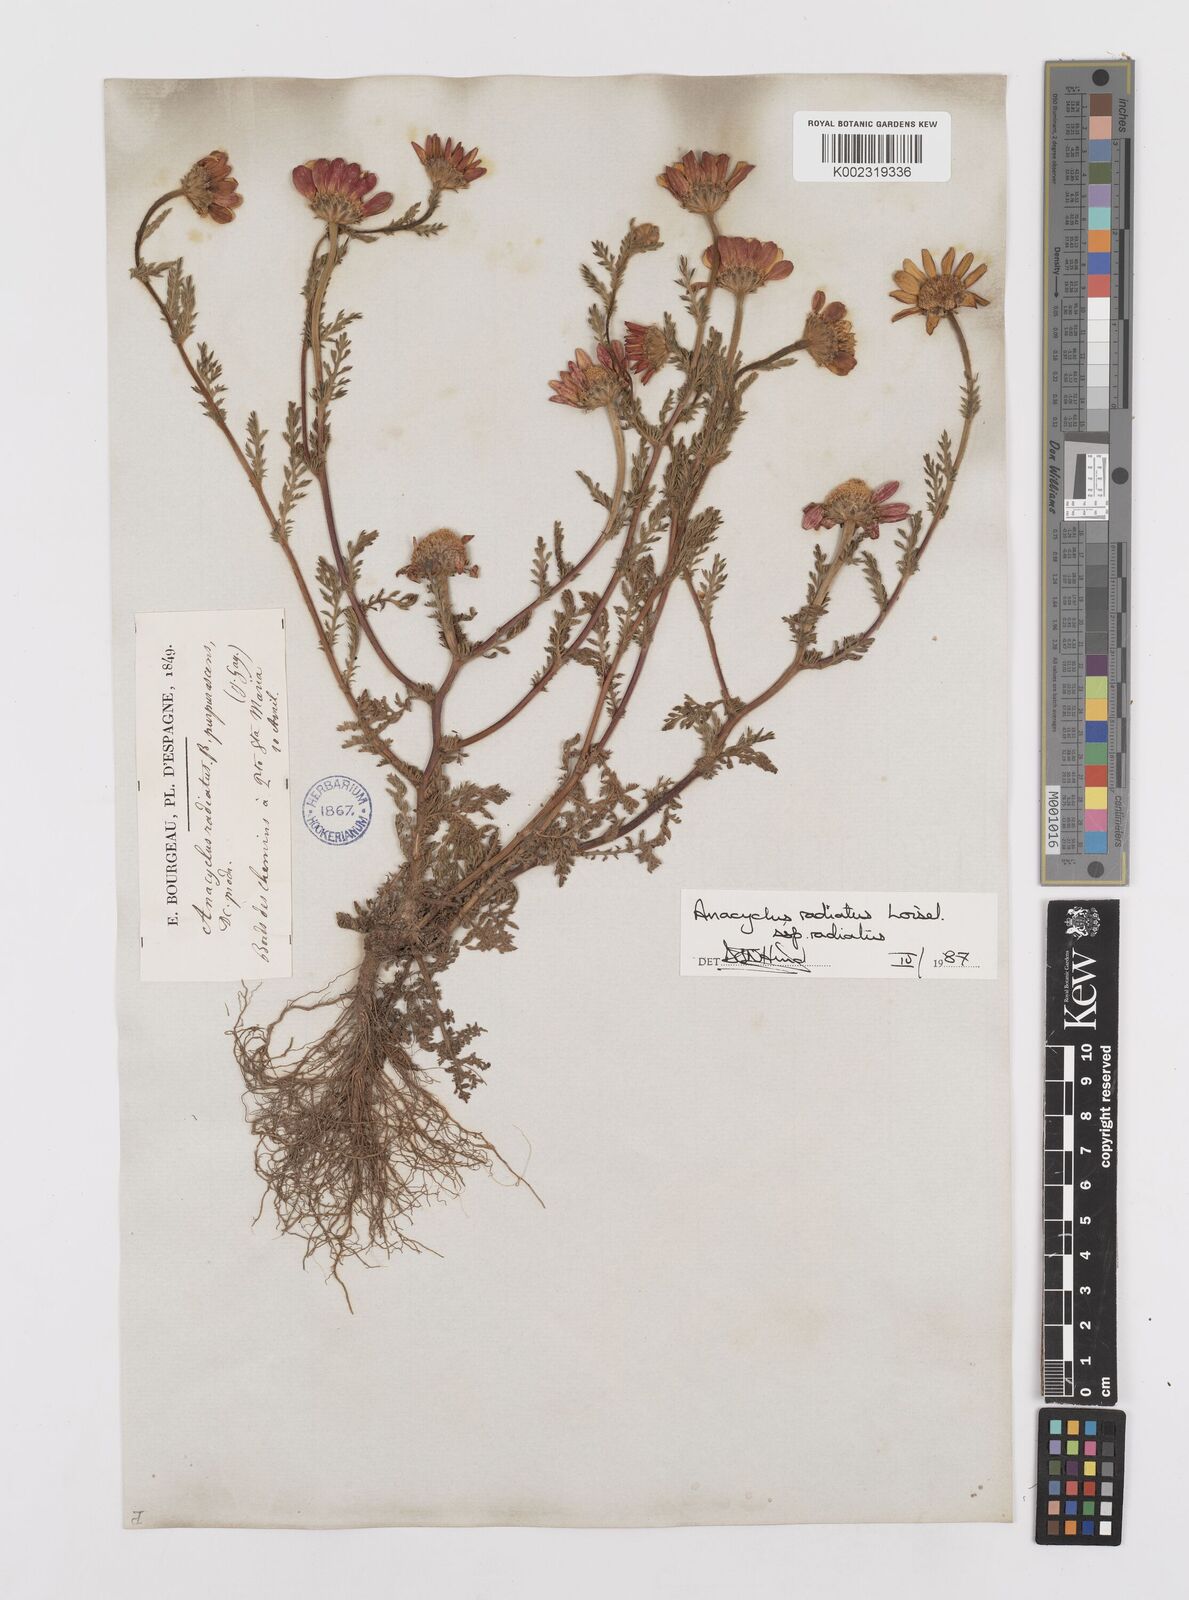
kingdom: Plantae
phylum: Tracheophyta
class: Magnoliopsida
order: Asterales
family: Asteraceae
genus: Anacyclus
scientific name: Anacyclus radiatus
